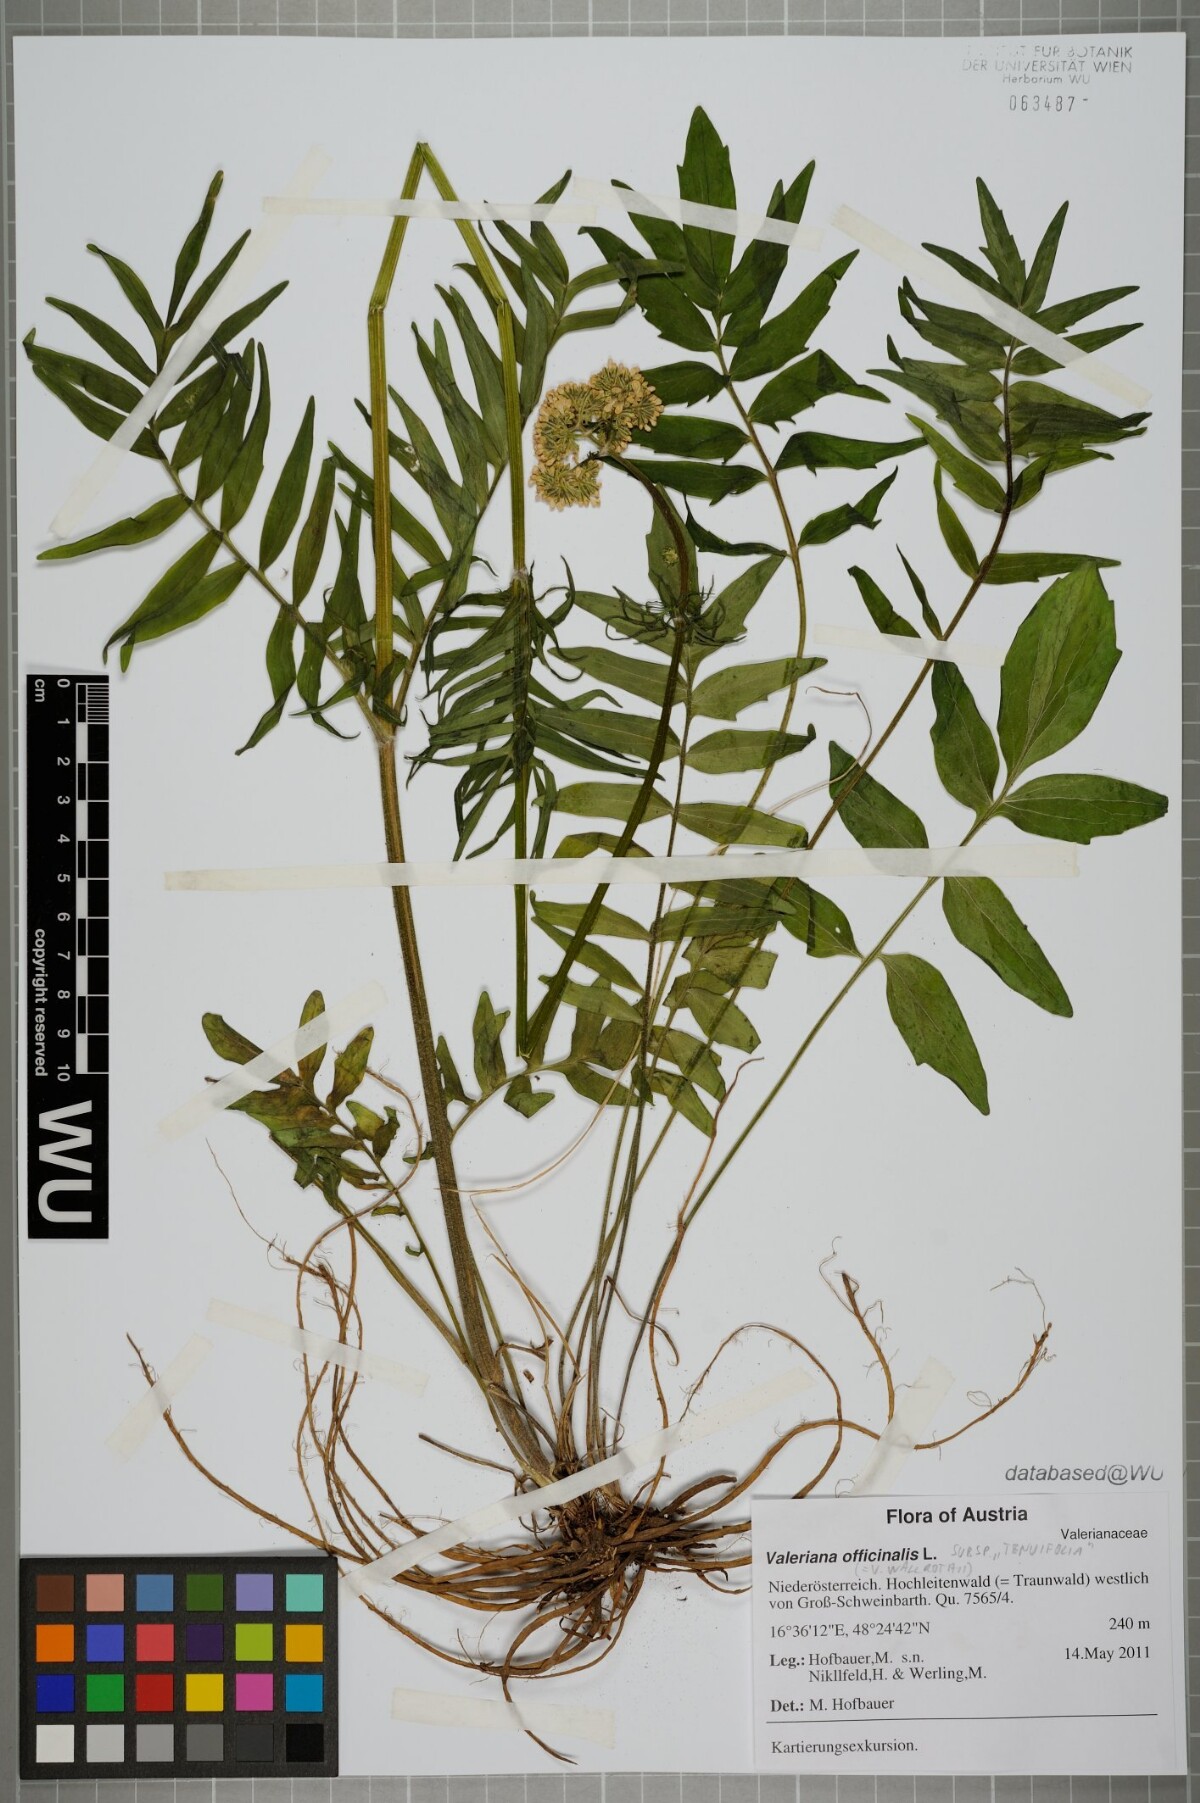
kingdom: Plantae
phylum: Tracheophyta
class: Magnoliopsida
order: Dipsacales
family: Caprifoliaceae
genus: Valeriana
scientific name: Valeriana officinalis
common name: Common valerian
